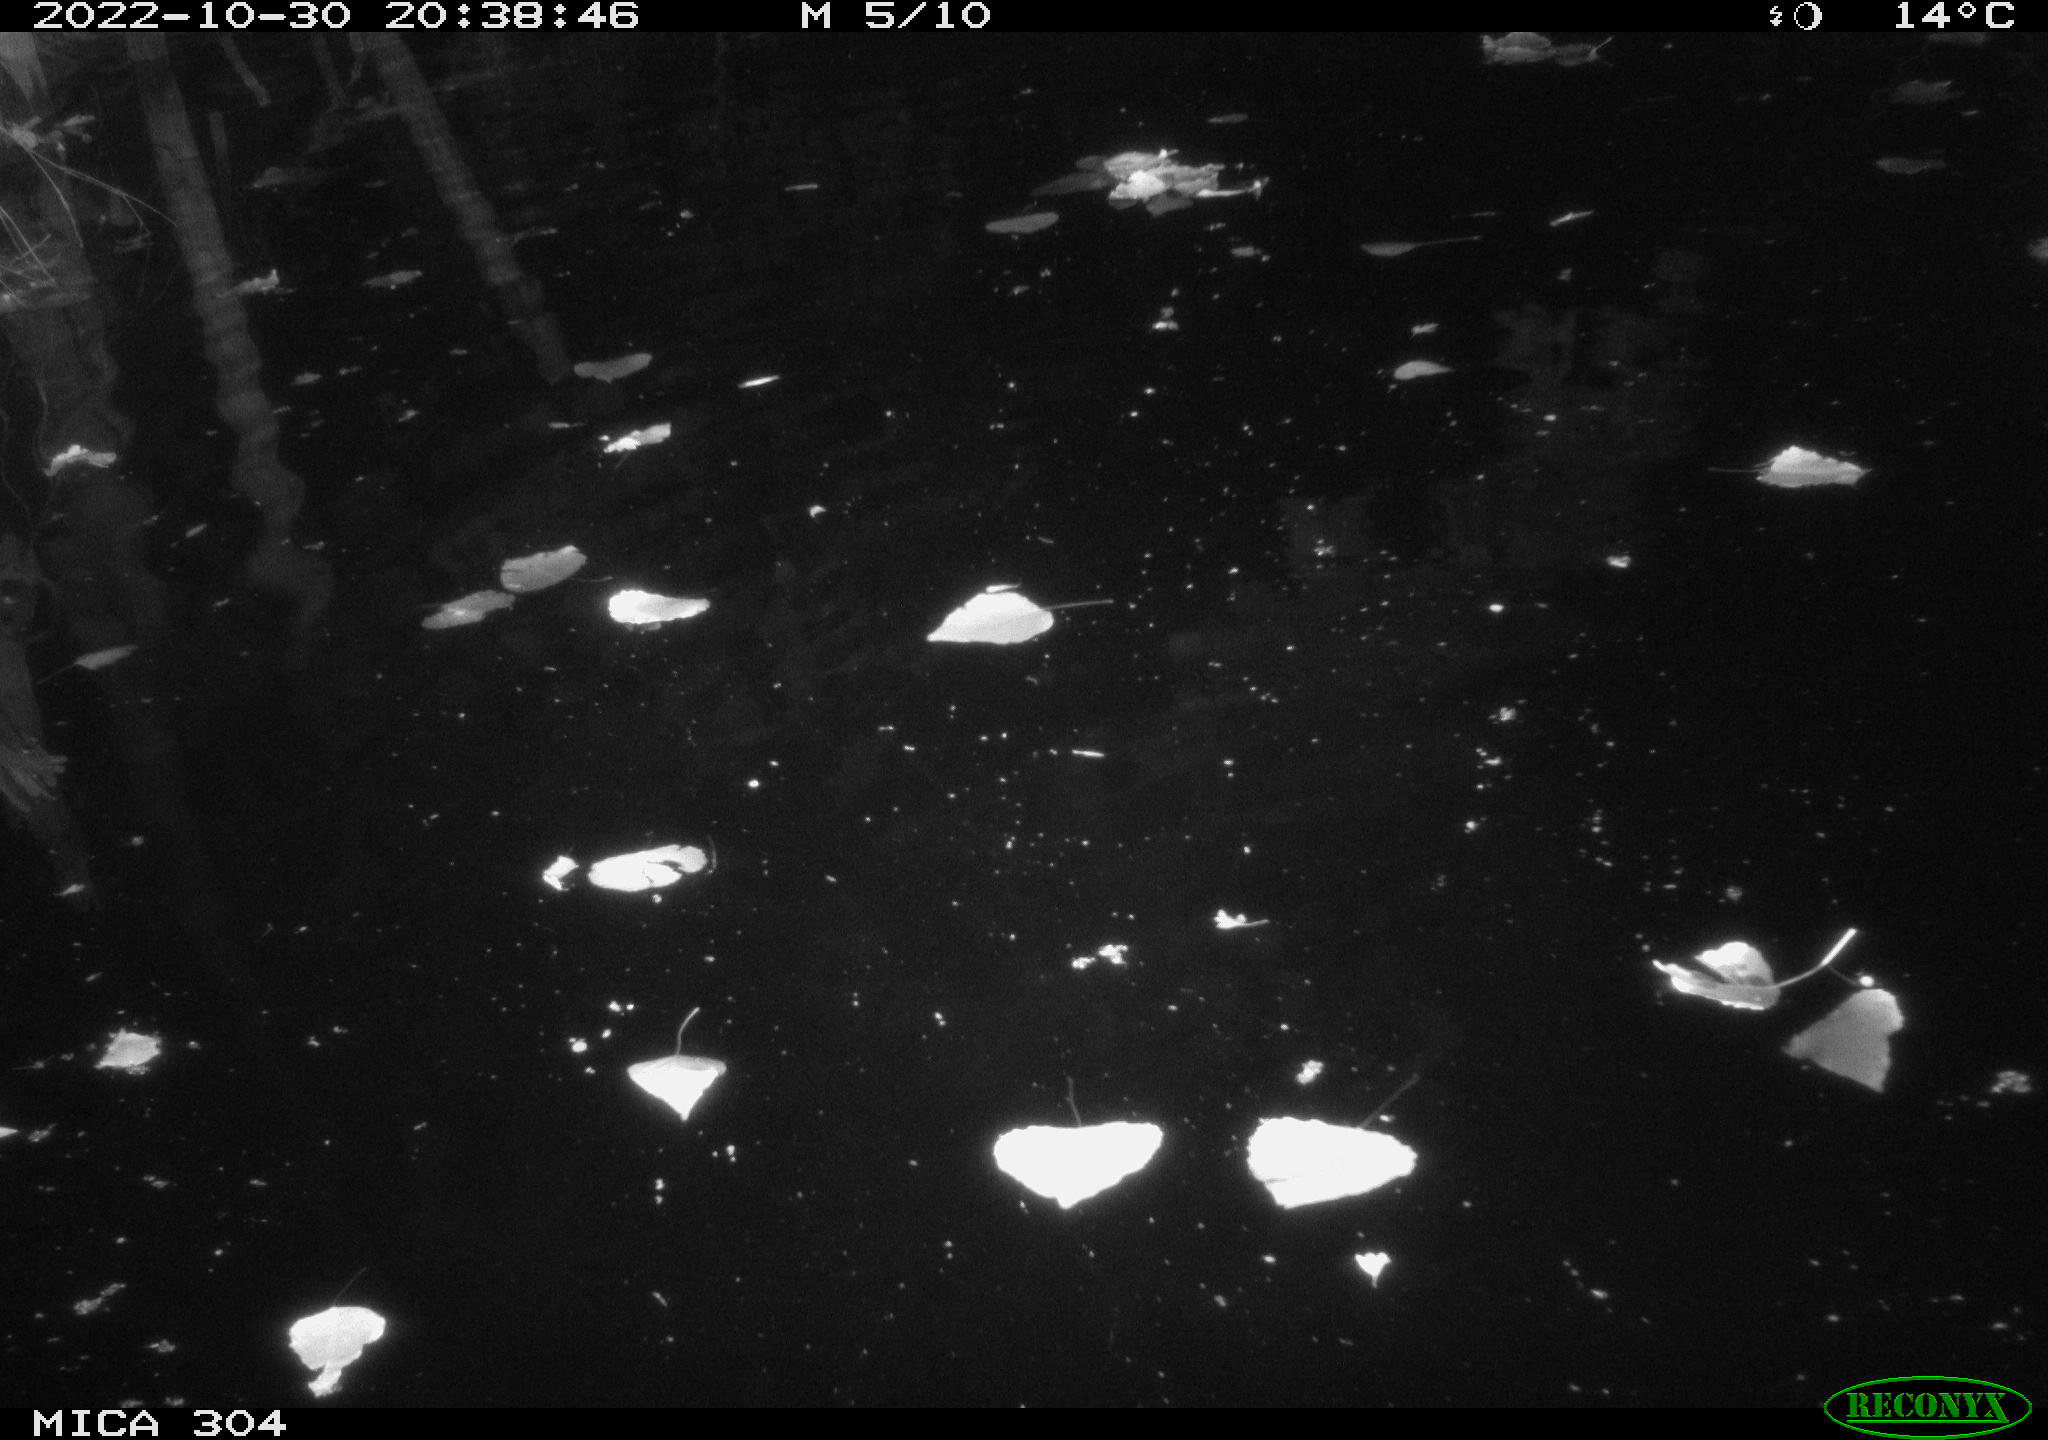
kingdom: Animalia
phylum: Chordata
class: Mammalia
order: Rodentia
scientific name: Rodentia
